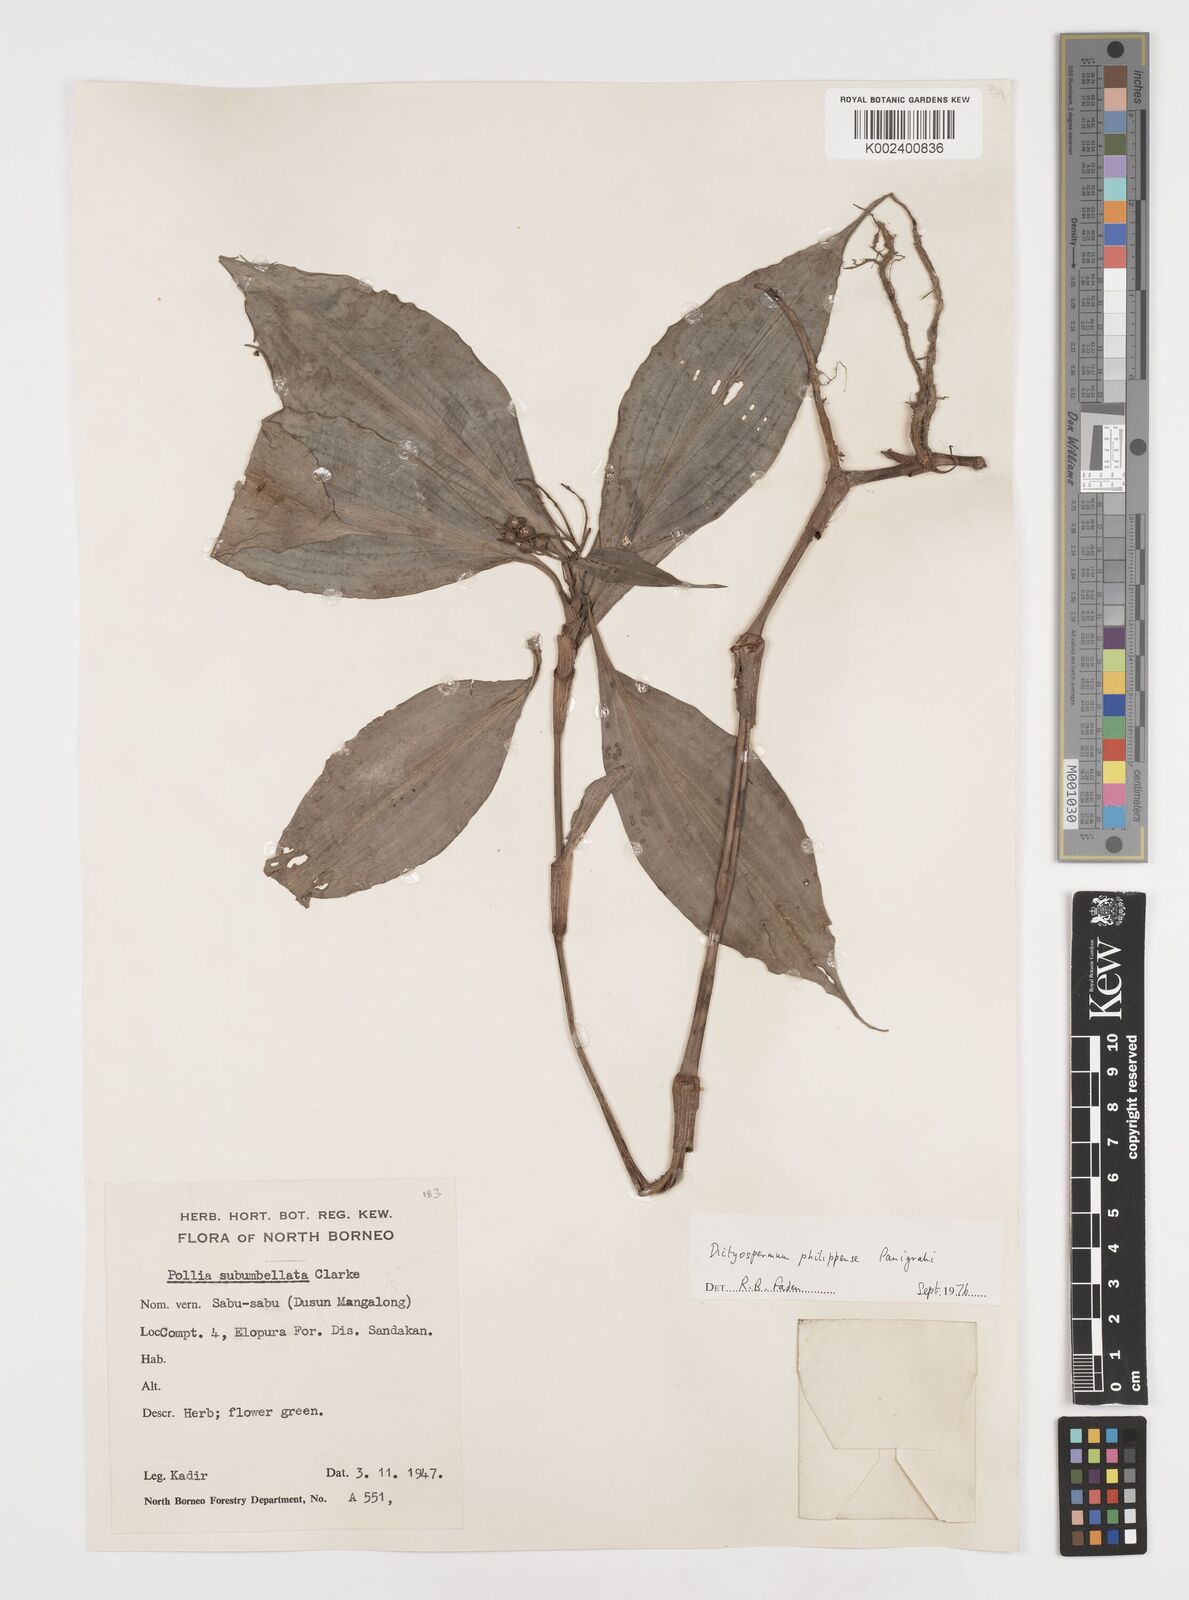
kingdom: Plantae
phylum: Tracheophyta
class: Liliopsida
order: Commelinales
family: Commelinaceae
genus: Tricarpelema
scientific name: Tricarpelema philippense
